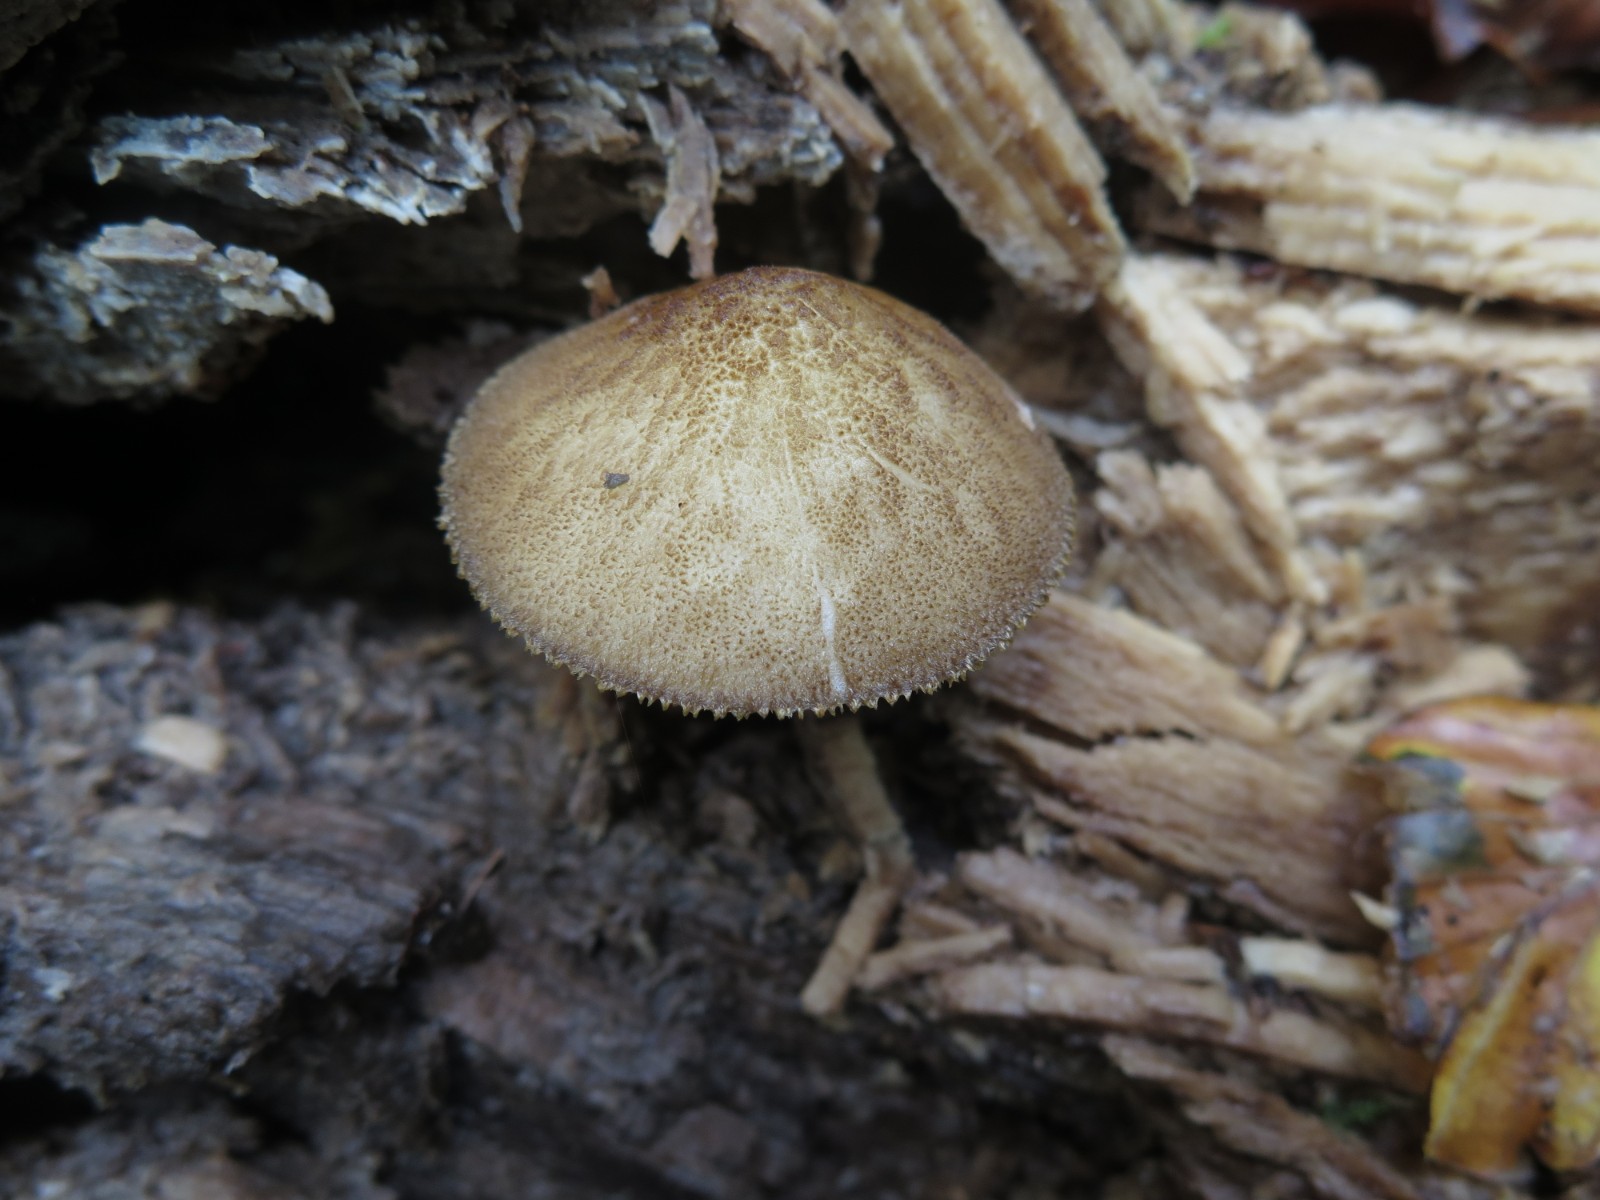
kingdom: Fungi
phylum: Basidiomycota
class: Agaricomycetes
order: Agaricales
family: Pluteaceae
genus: Pluteus
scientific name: Pluteus umbrosus
